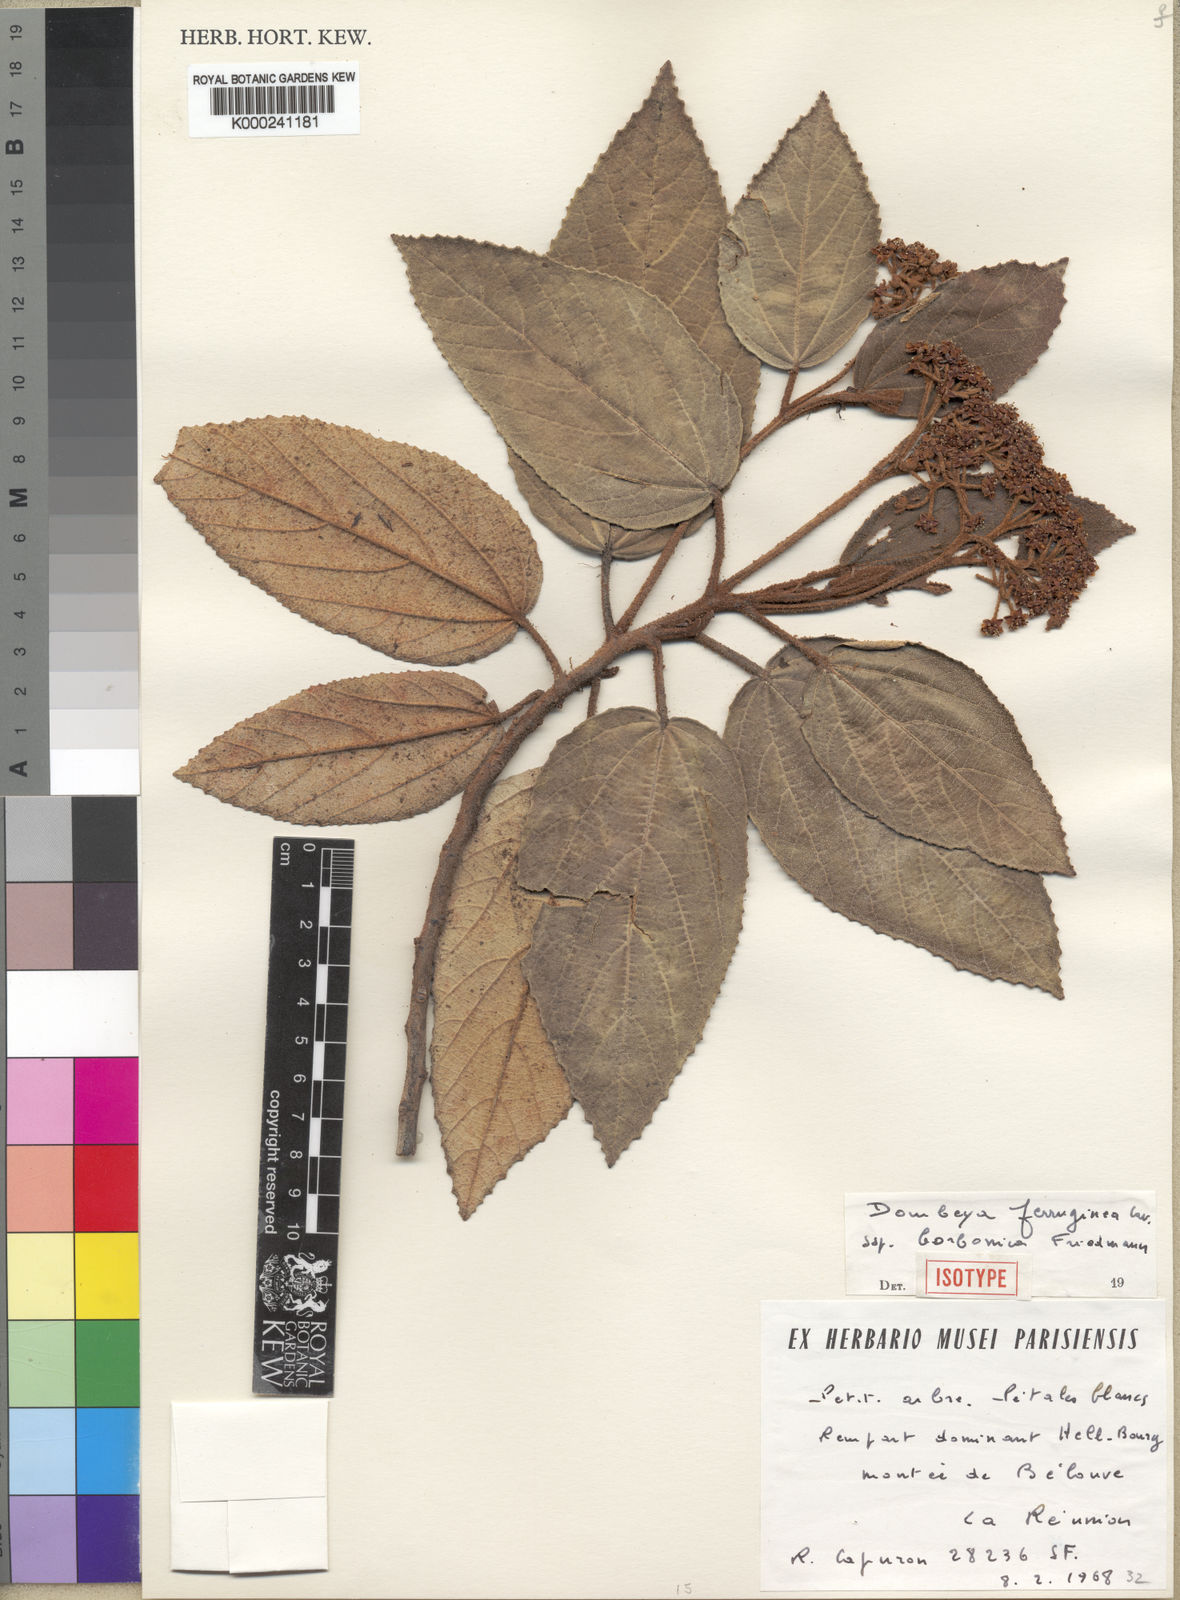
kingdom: Plantae
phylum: Tracheophyta
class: Magnoliopsida
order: Malvales
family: Malvaceae
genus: Ruizia
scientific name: Ruizia ferruginea
